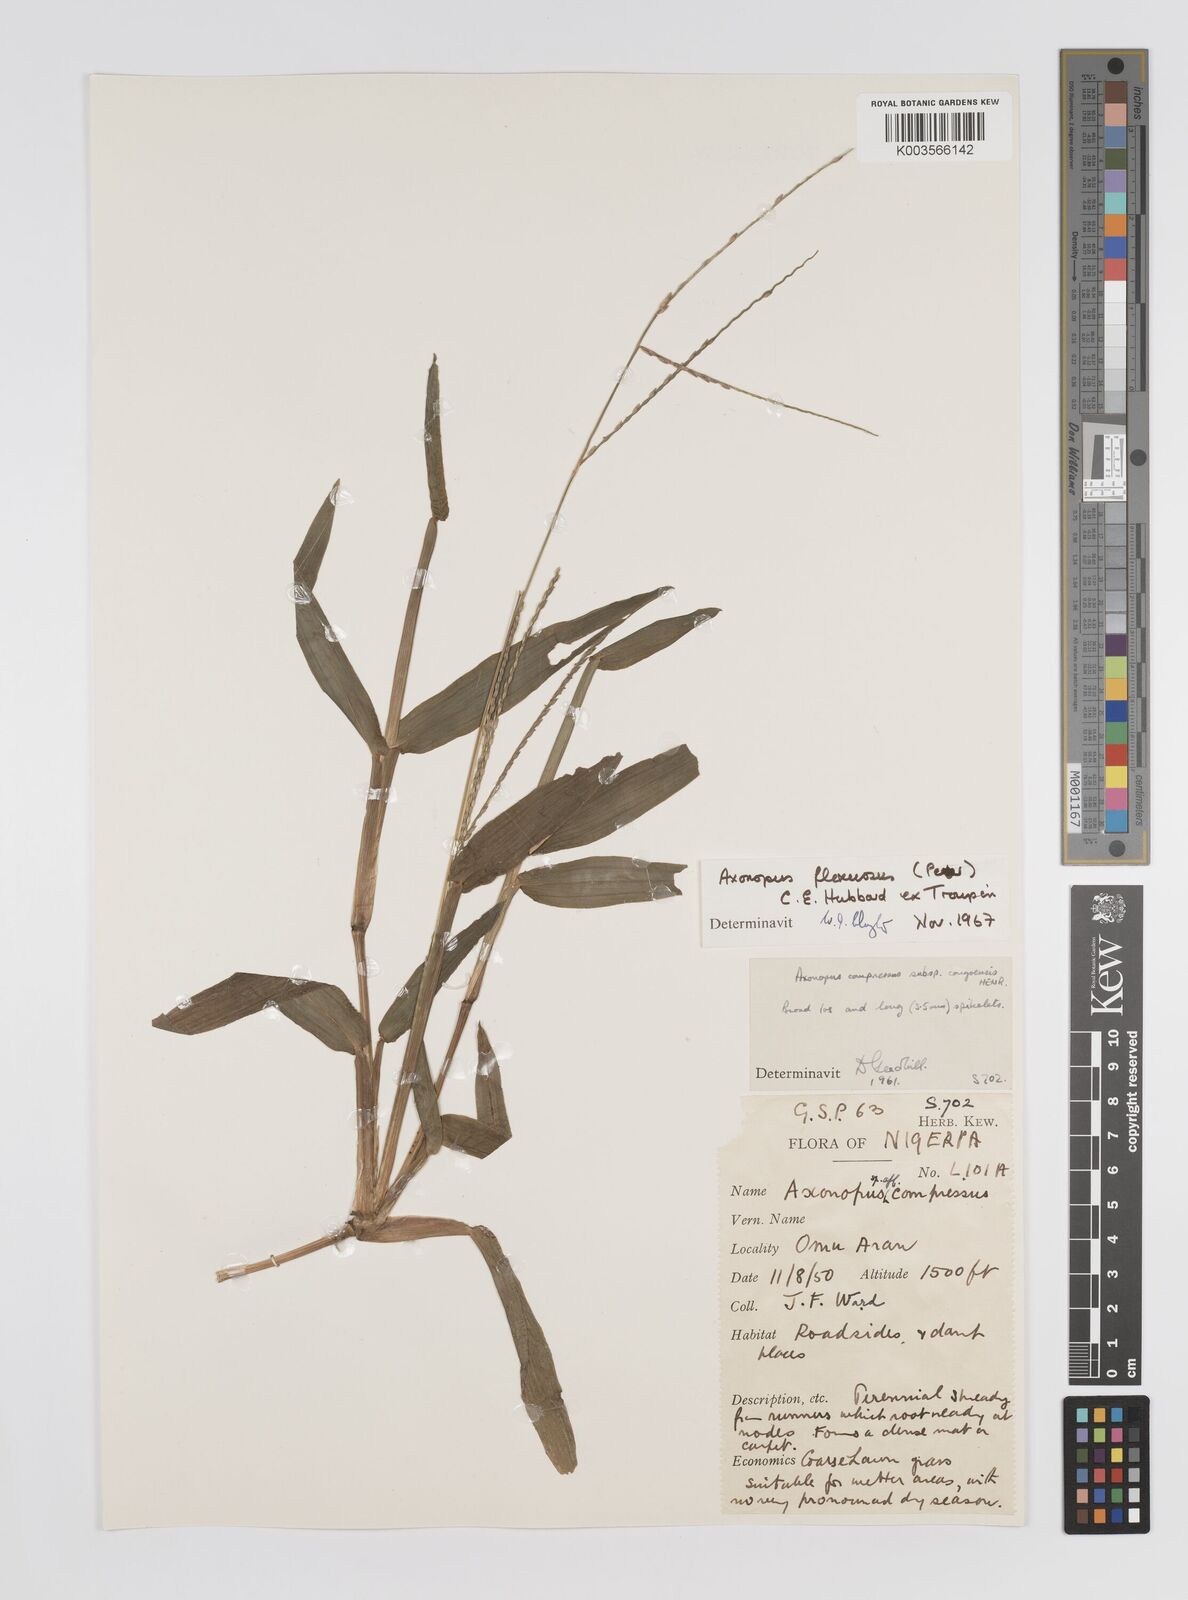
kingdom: Plantae
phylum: Tracheophyta
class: Liliopsida
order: Poales
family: Poaceae
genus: Axonopus
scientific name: Axonopus flexuosus
